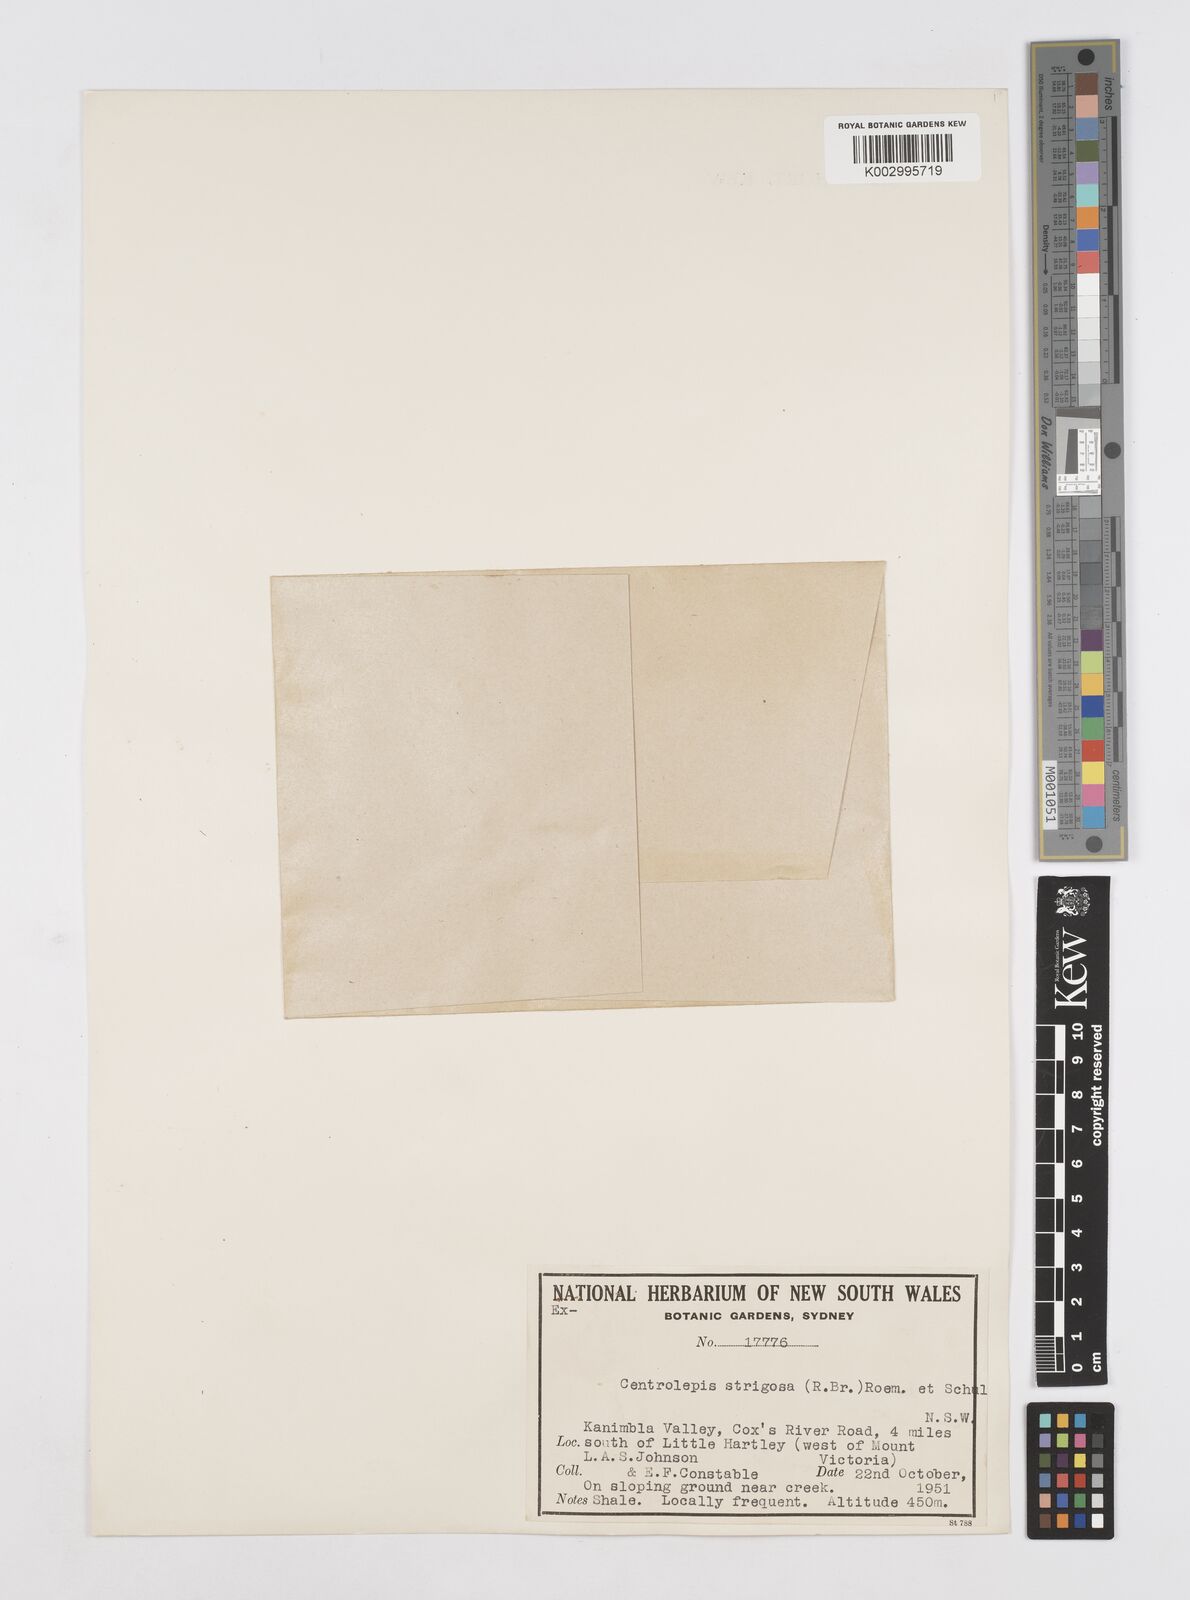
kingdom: Plantae
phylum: Tracheophyta
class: Liliopsida
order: Poales
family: Restionaceae
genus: Centrolepis
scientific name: Centrolepis strigosa
